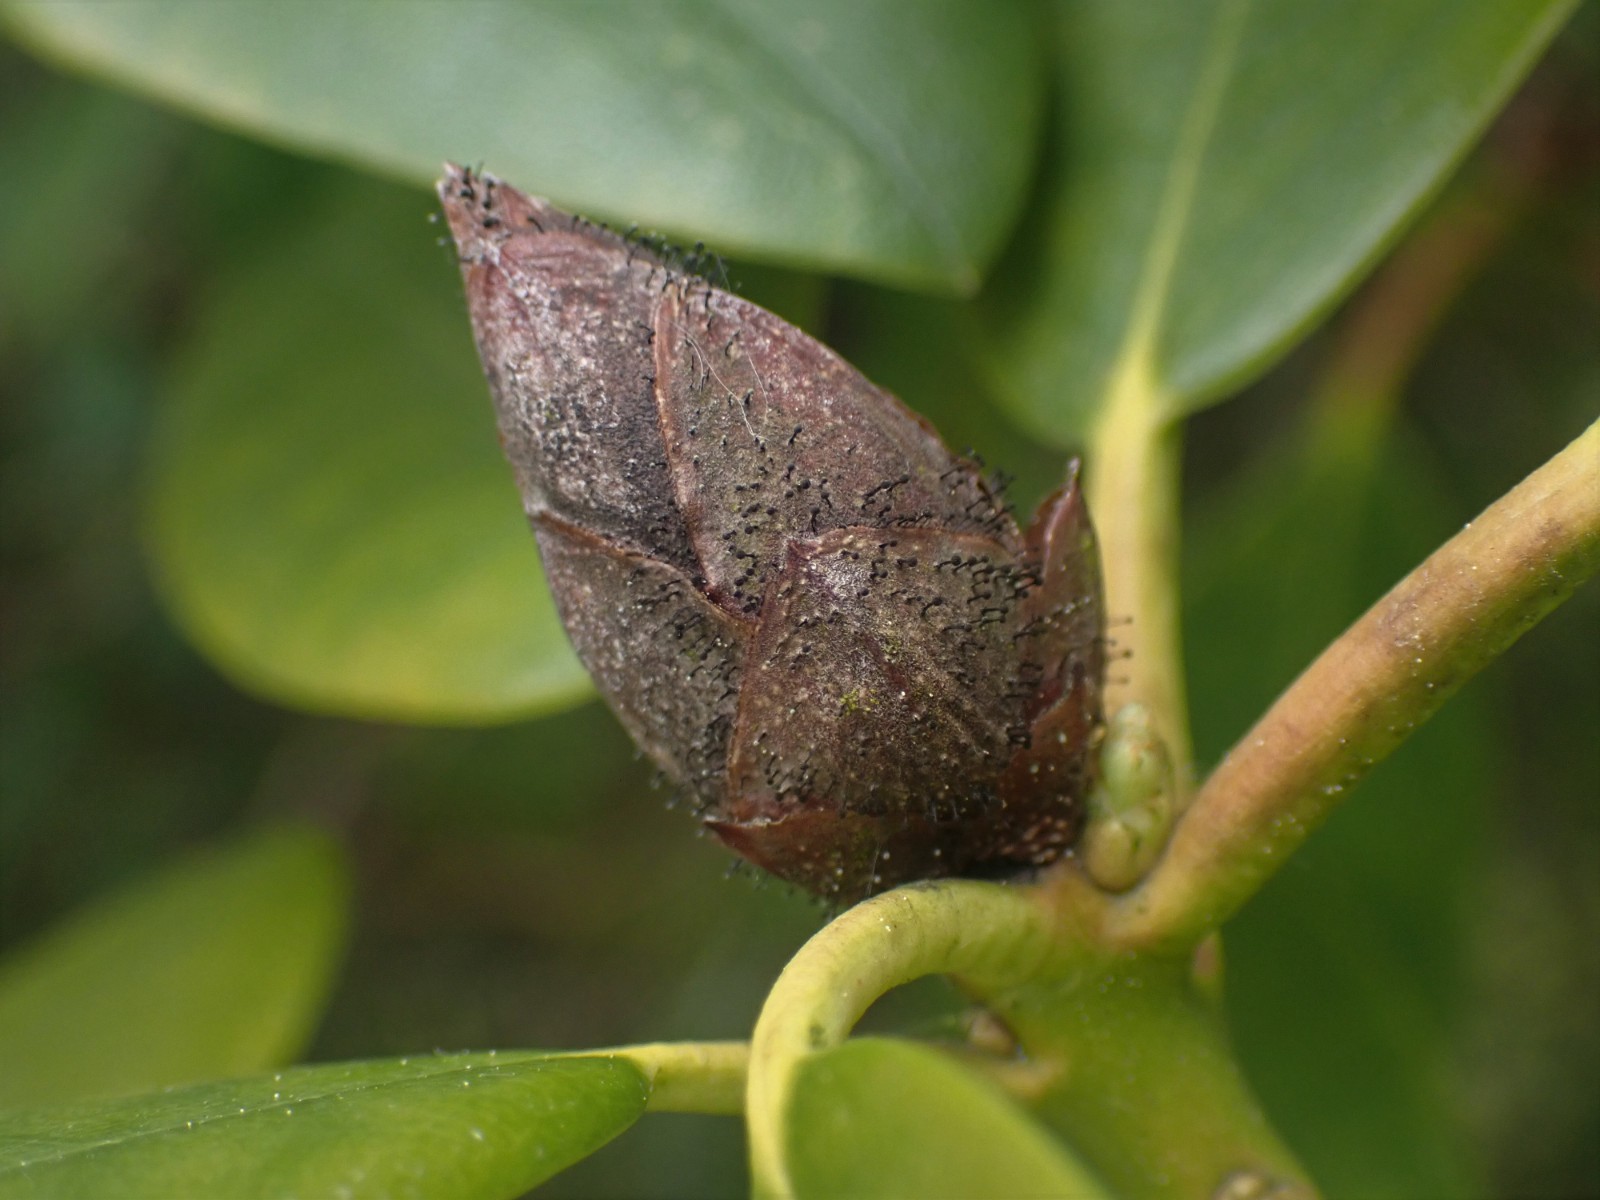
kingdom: Fungi
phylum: Ascomycota
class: Dothideomycetes
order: Pleosporales
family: Melanommataceae
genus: Seifertia
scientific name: Seifertia azaleae
